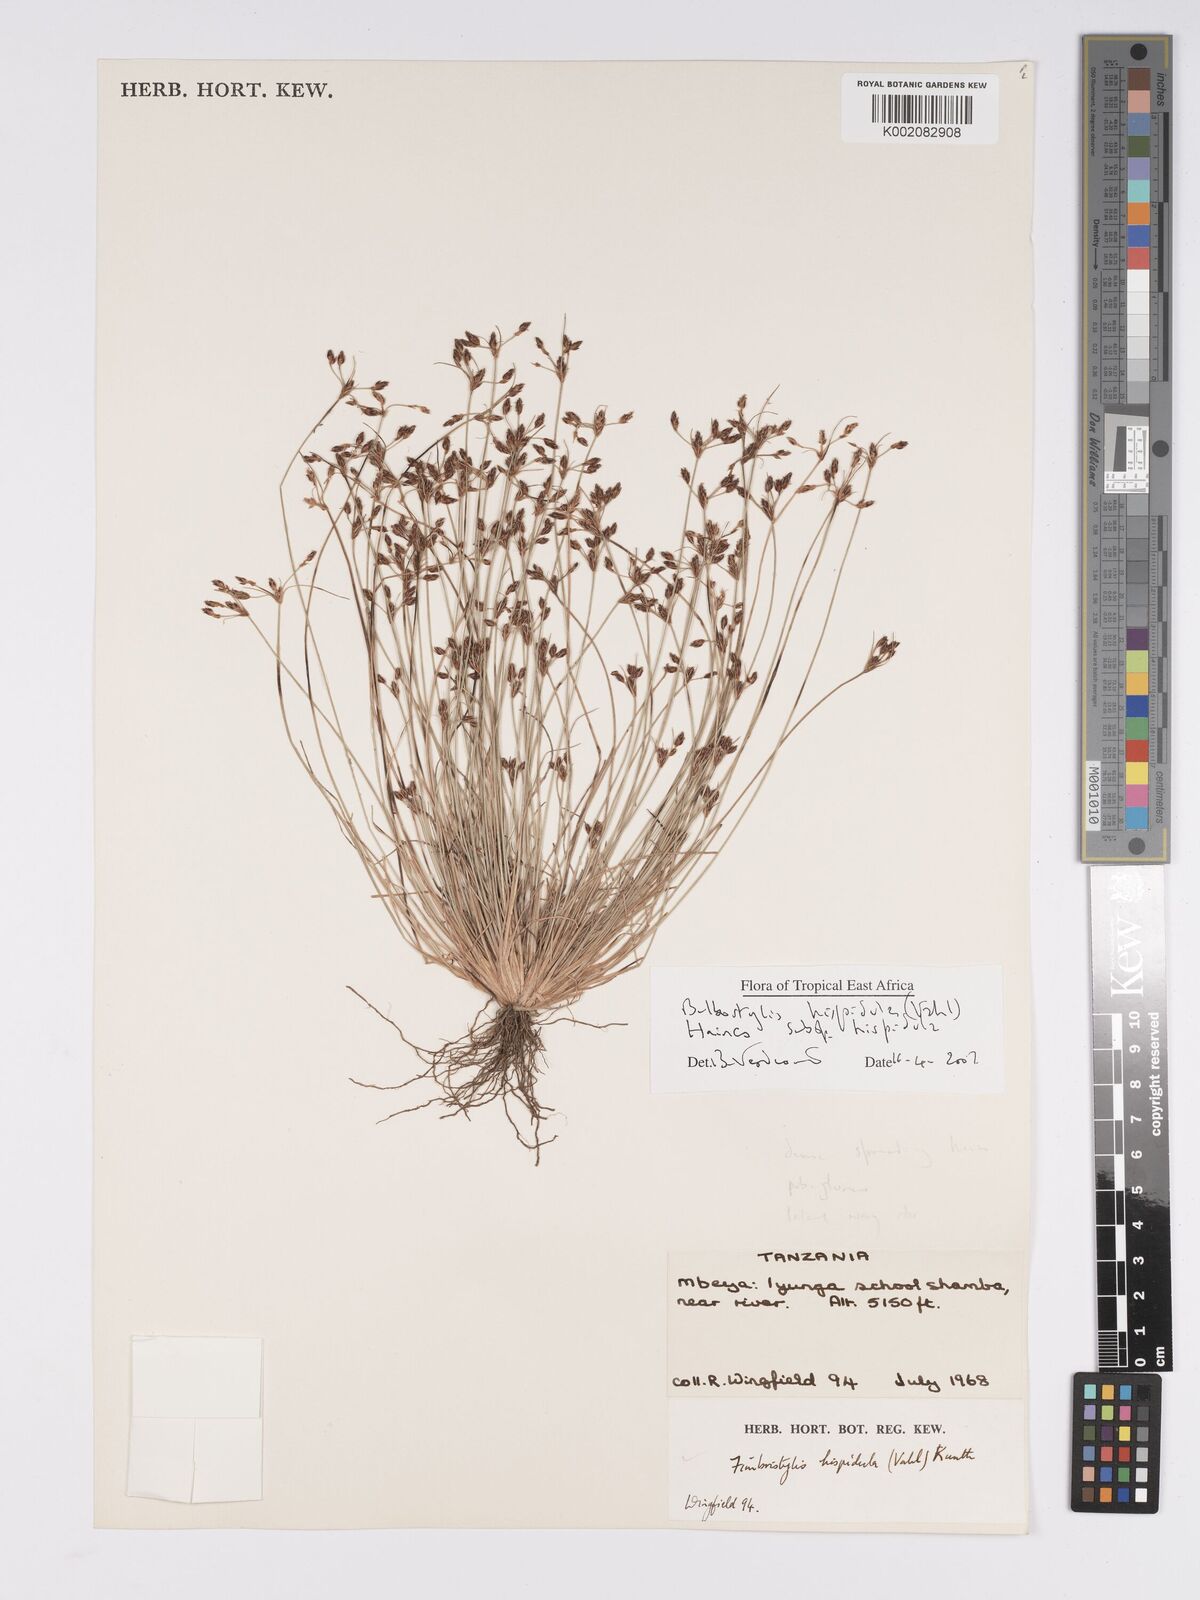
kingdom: Plantae
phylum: Tracheophyta
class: Liliopsida
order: Poales
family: Cyperaceae
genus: Bulbostylis
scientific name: Bulbostylis hispidula
